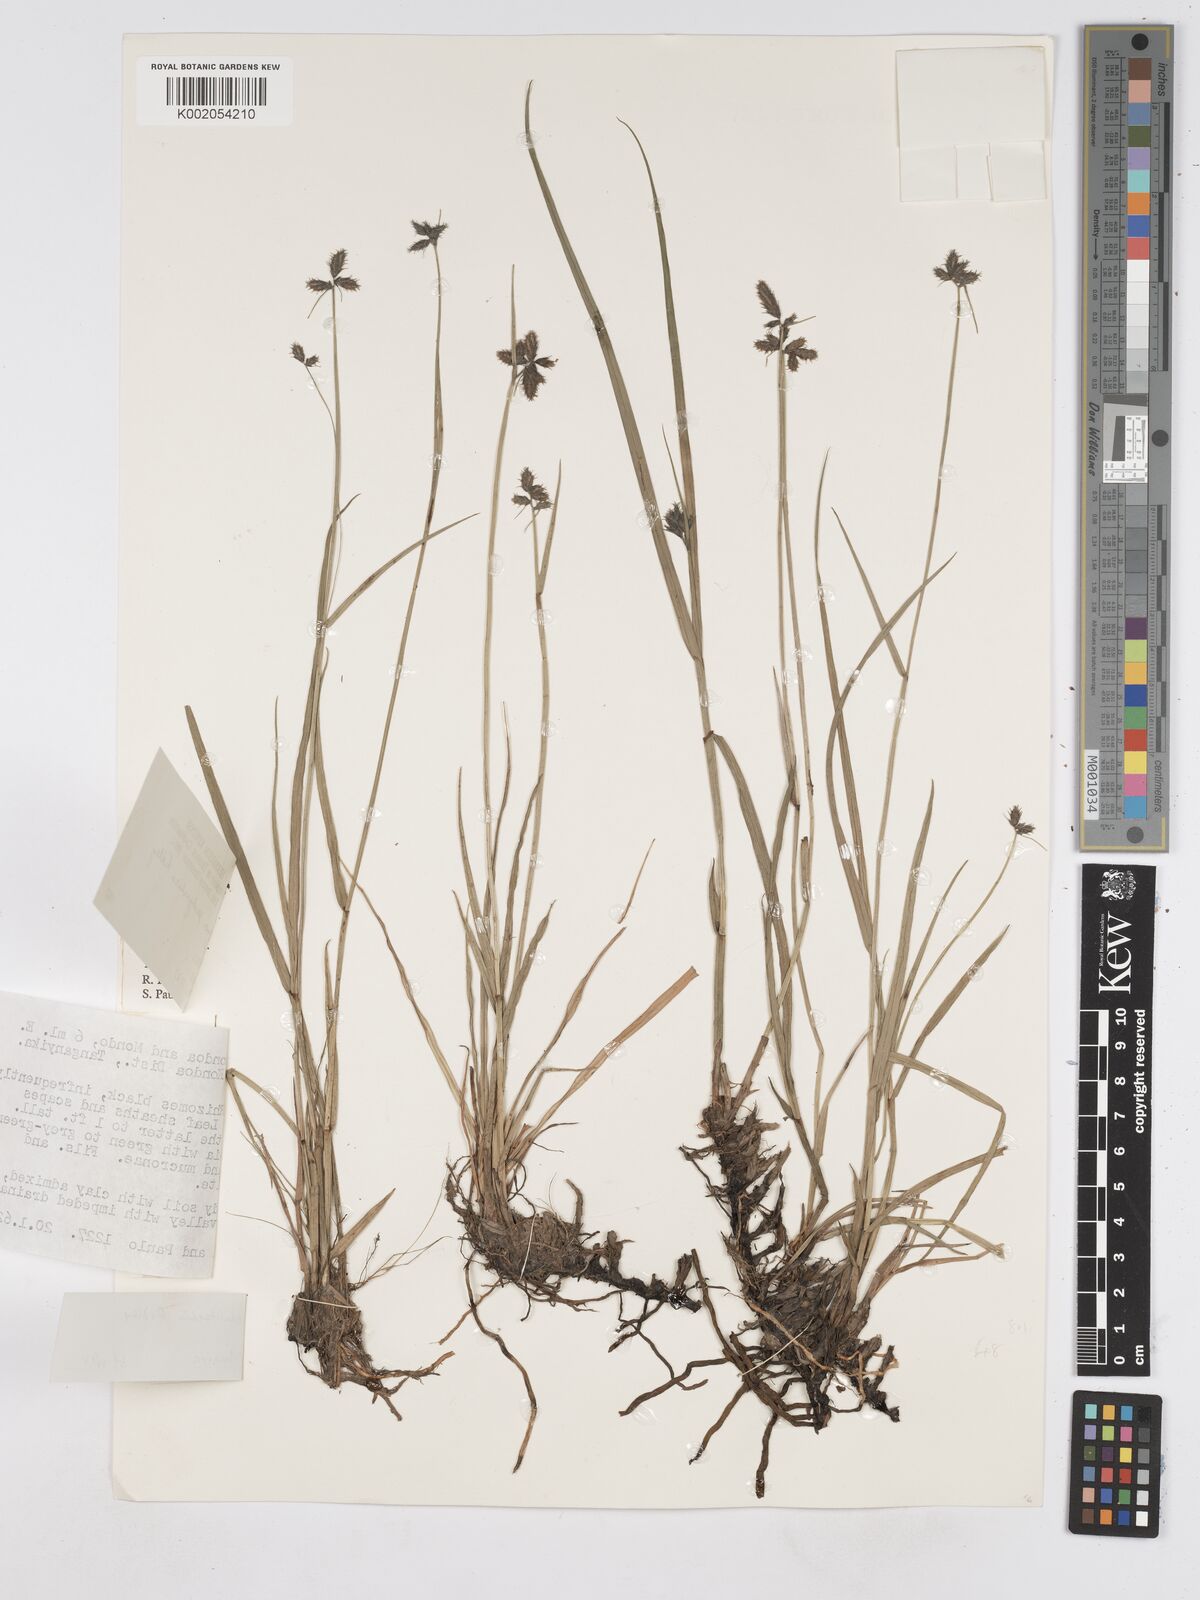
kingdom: Plantae
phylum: Tracheophyta
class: Liliopsida
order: Poales
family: Cyperaceae
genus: Fuirena
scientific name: Fuirena welwitschii
